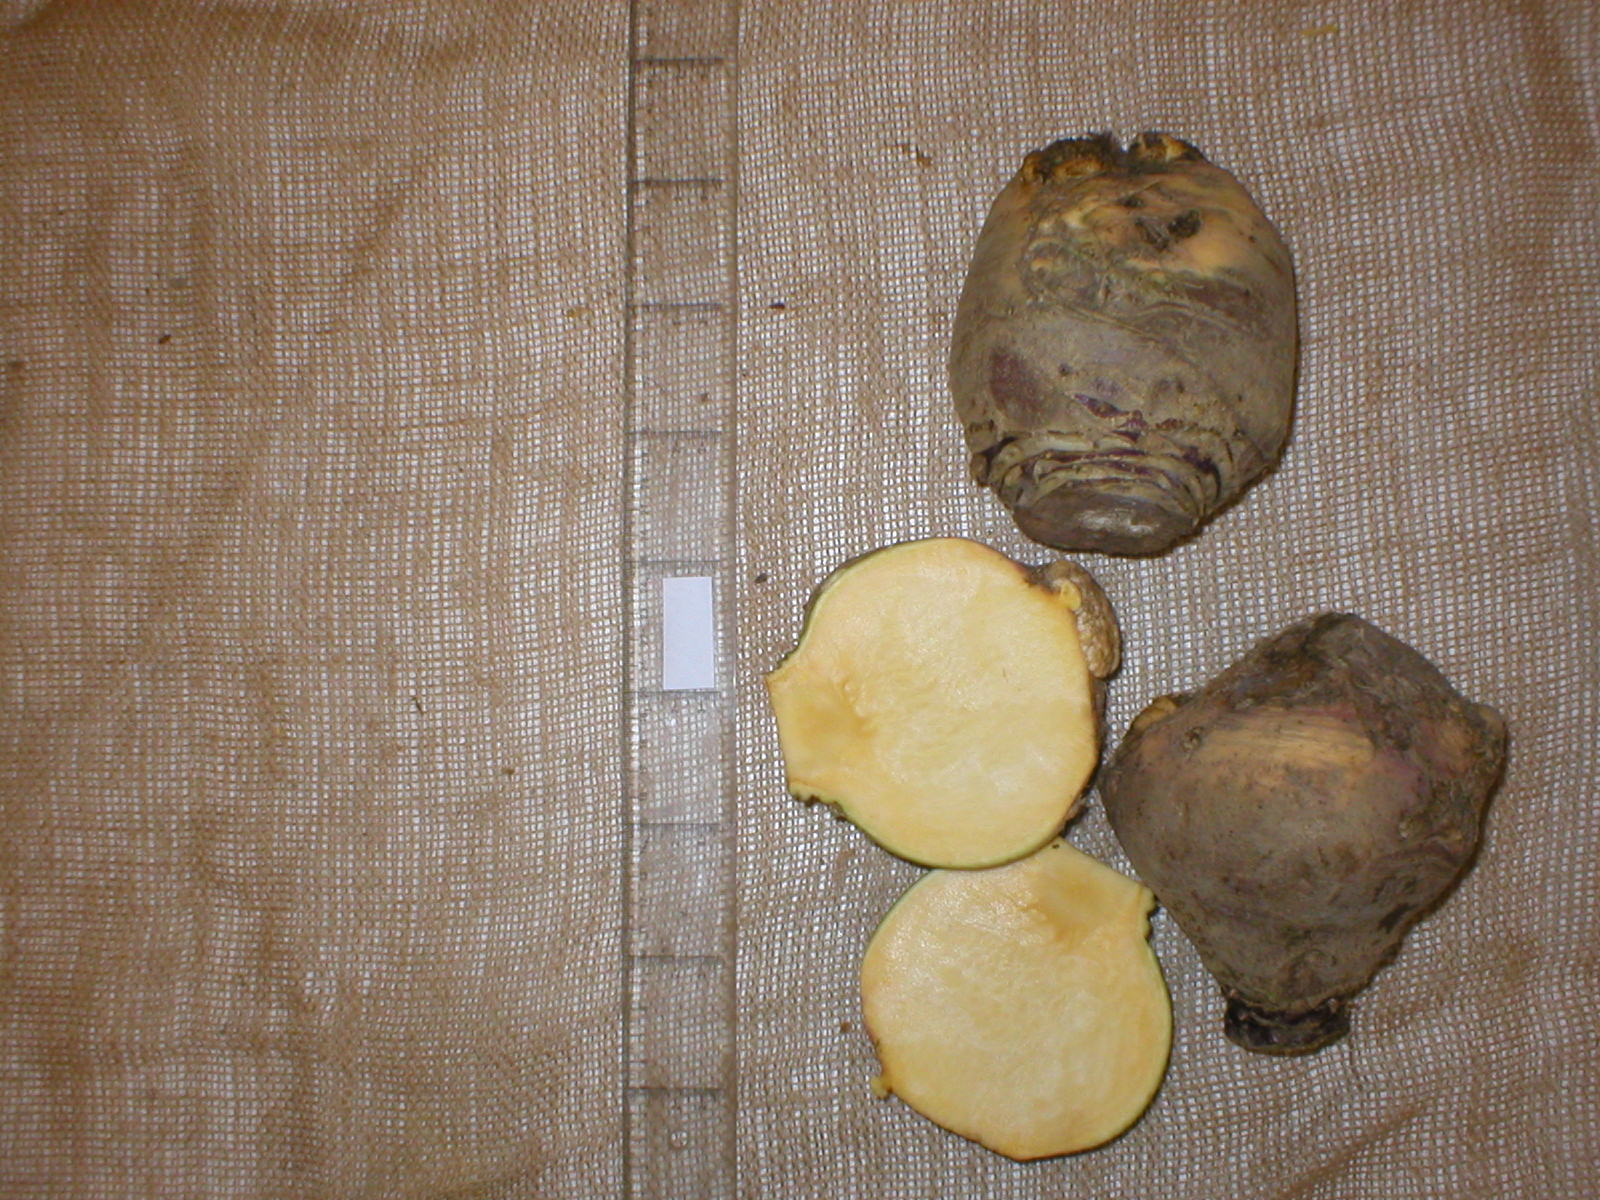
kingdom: Plantae
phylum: Tracheophyta
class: Magnoliopsida
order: Brassicales
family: Brassicaceae
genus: Brassica
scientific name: Brassica napus
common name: Rape
